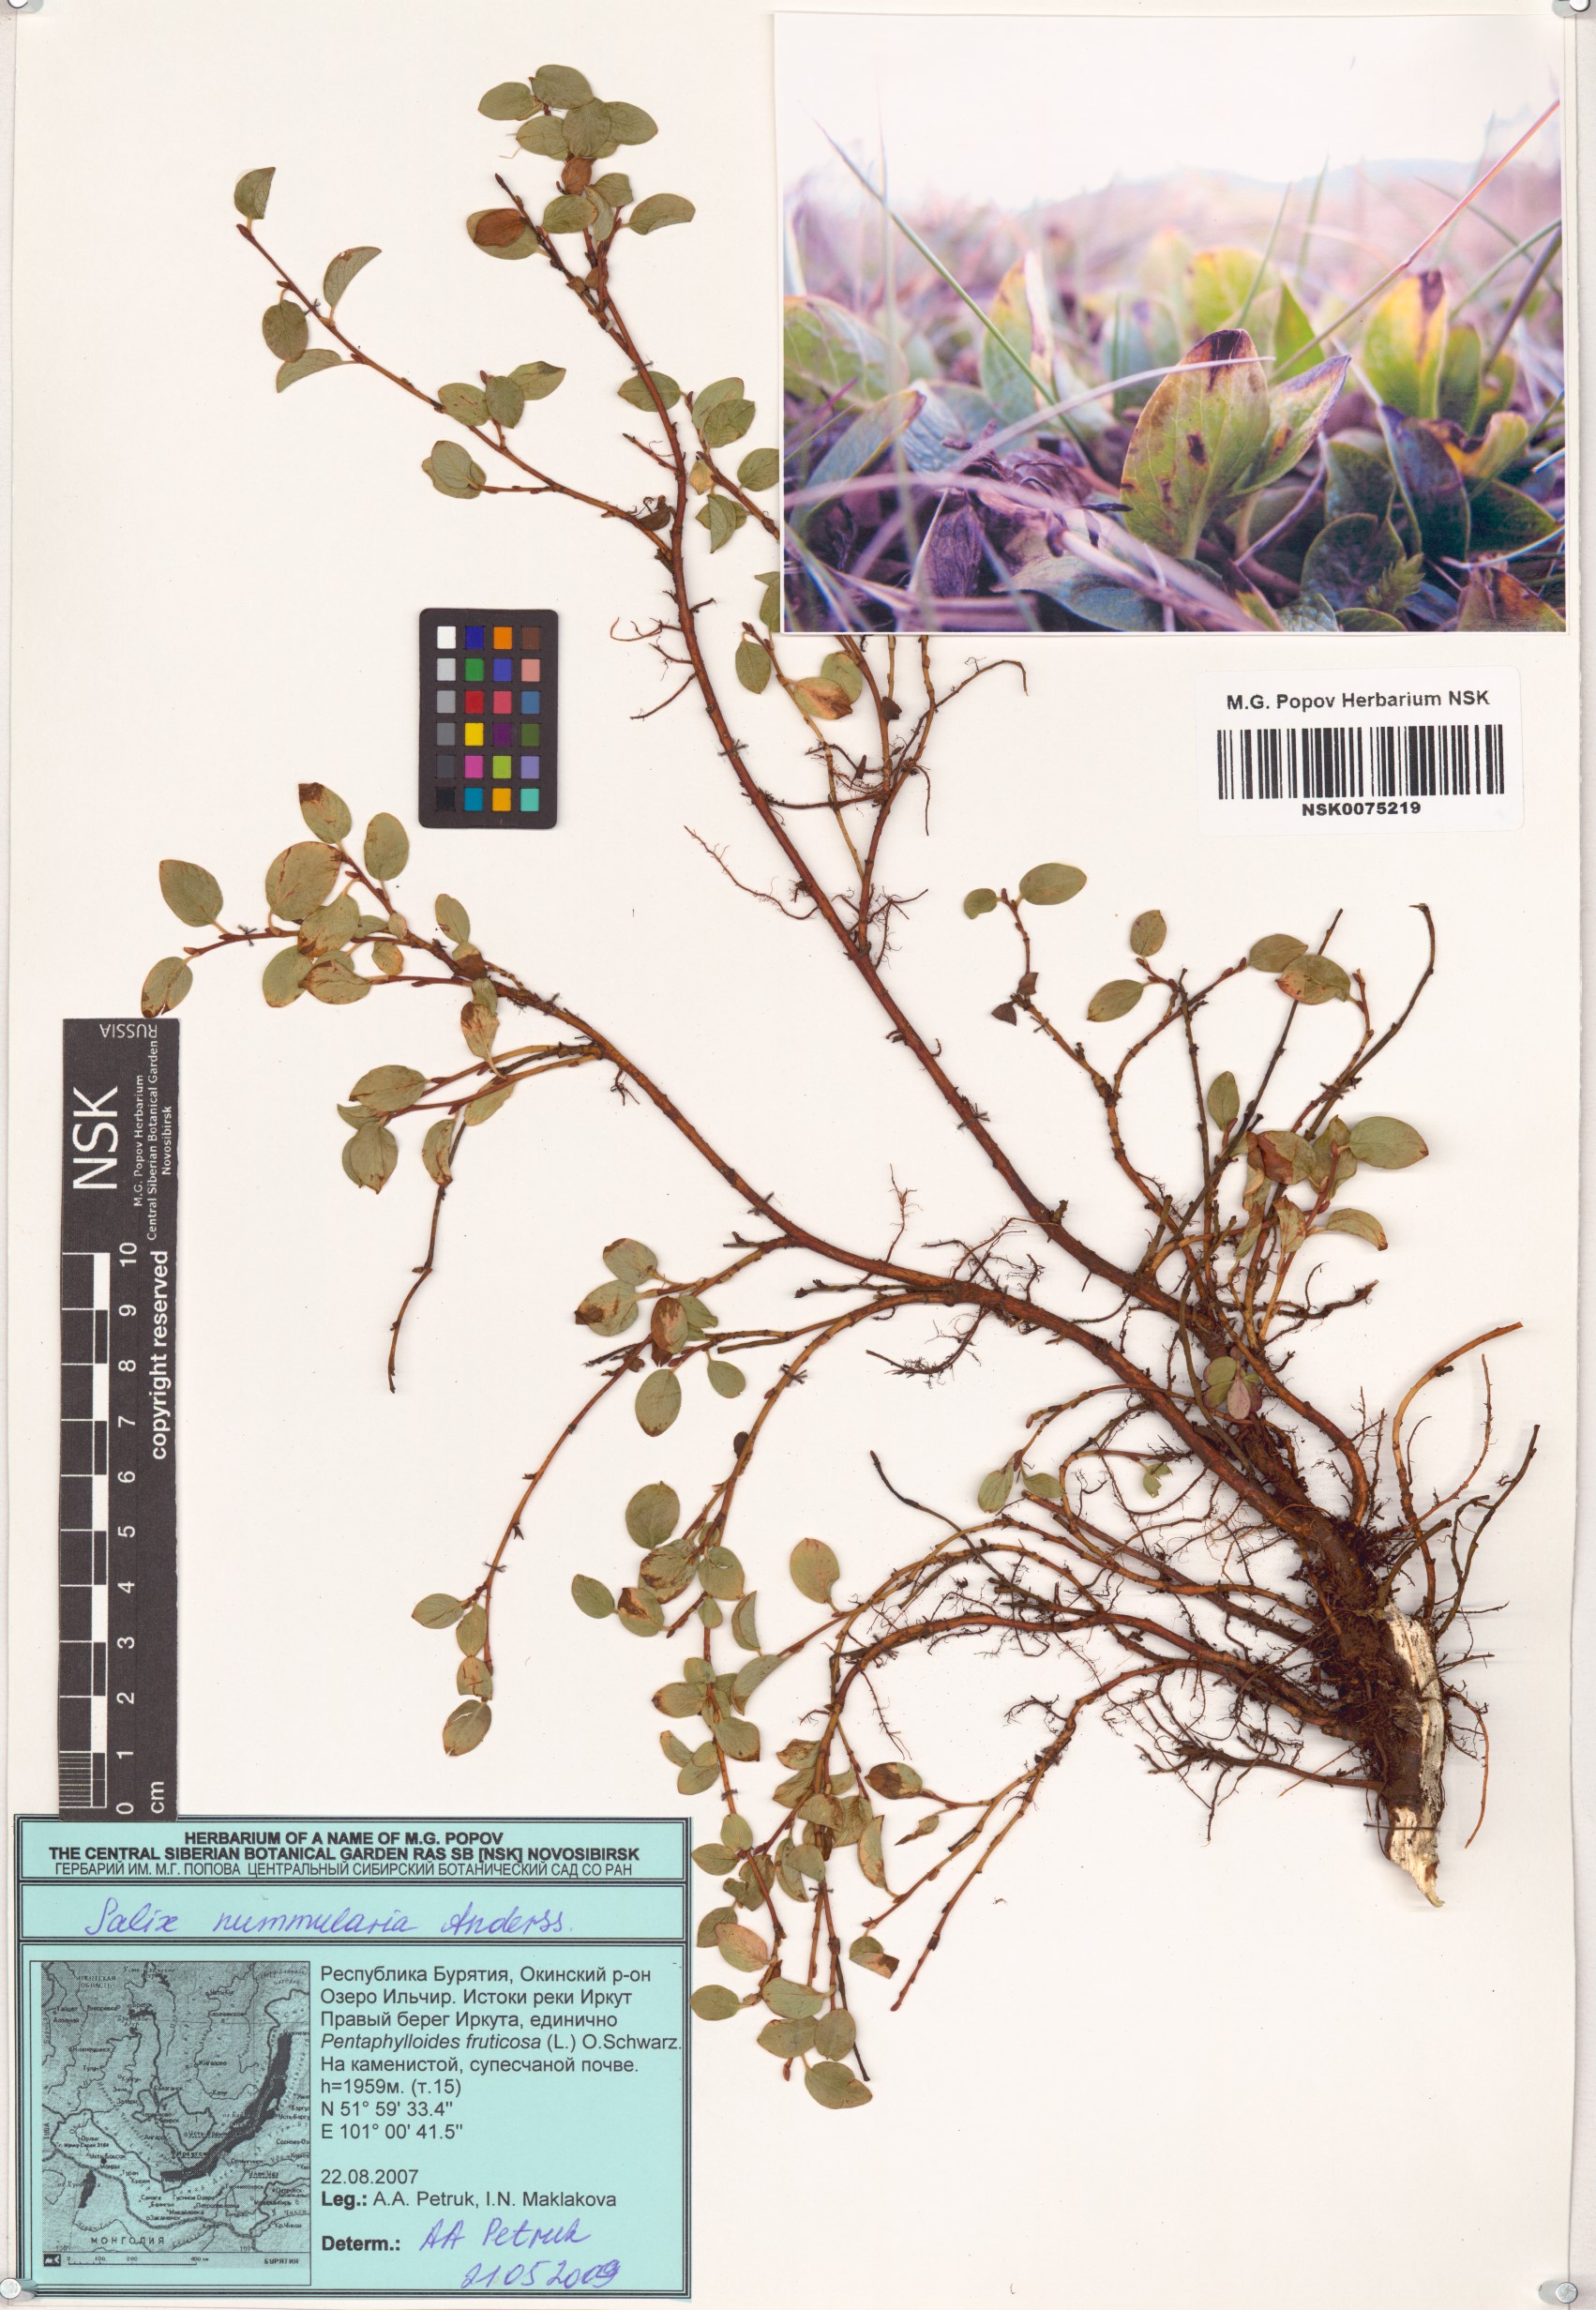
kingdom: Plantae
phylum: Tracheophyta
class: Magnoliopsida
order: Malpighiales
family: Salicaceae
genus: Salix
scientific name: Salix nummularia
